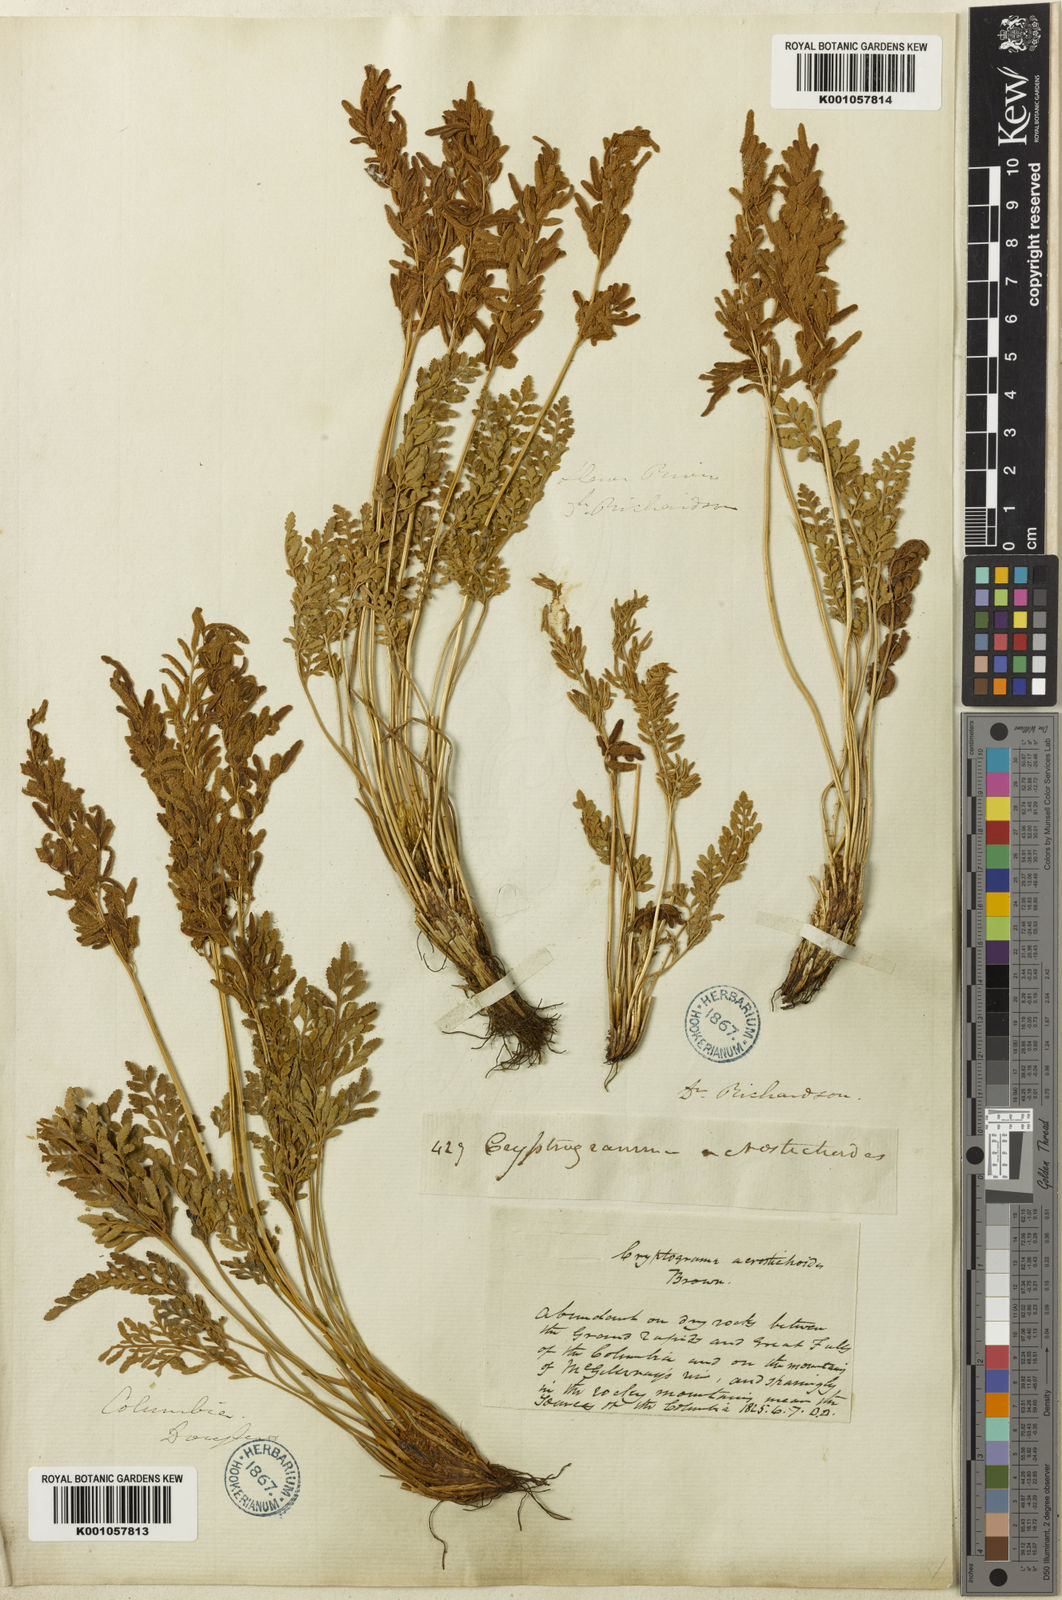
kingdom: Plantae
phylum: Tracheophyta
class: Polypodiopsida
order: Polypodiales
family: Pteridaceae
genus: Cryptogramma
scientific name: Cryptogramma acrostichoides
